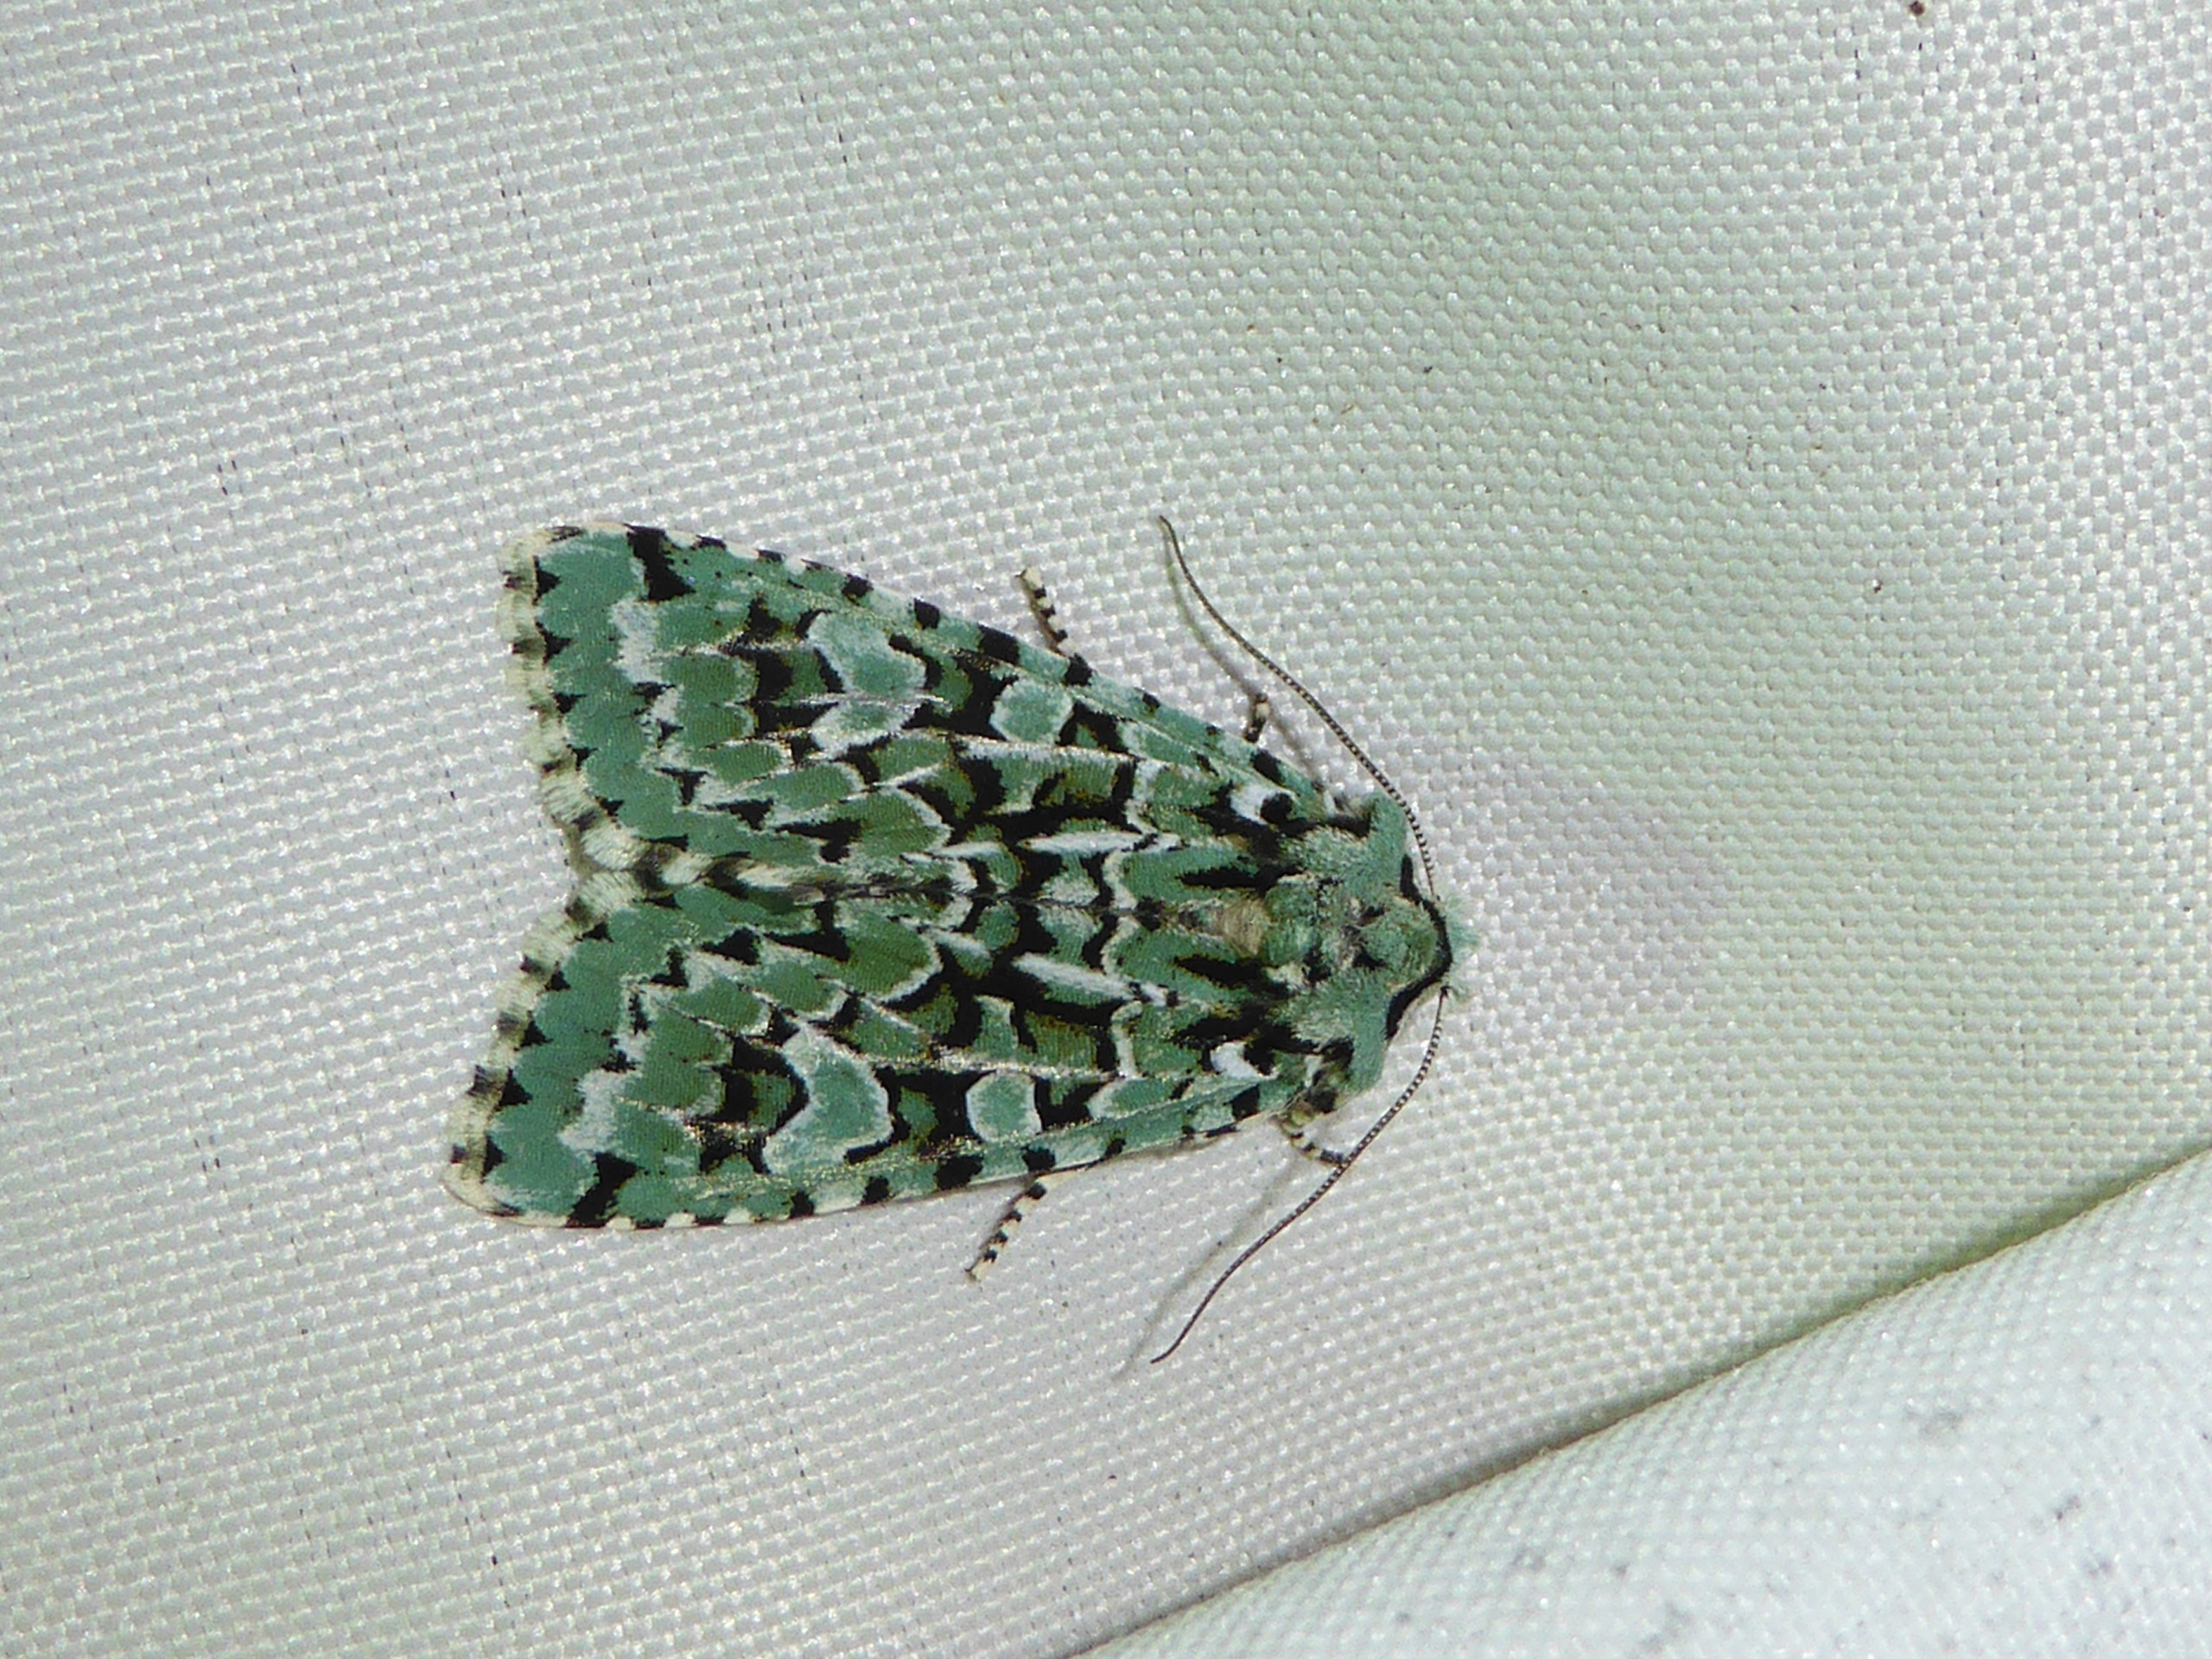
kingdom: Animalia
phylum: Arthropoda
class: Insecta
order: Lepidoptera
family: Noctuidae
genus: Griposia
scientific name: Griposia aprilina
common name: Aprilugle
